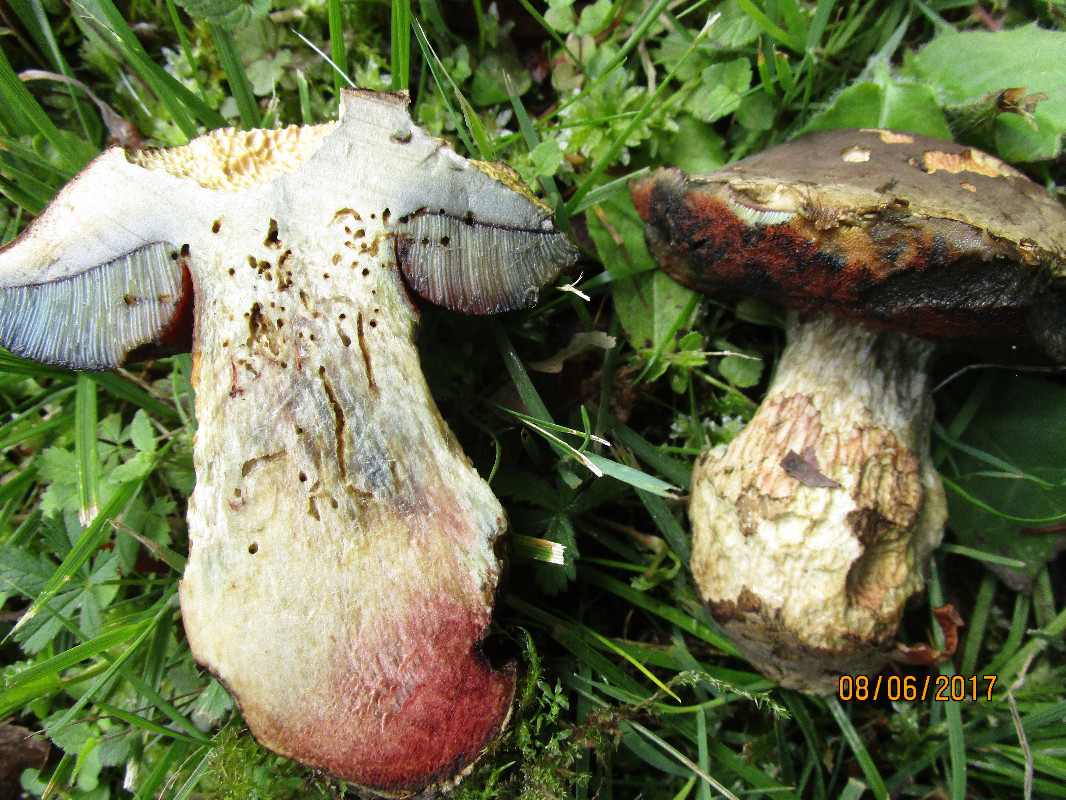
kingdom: Fungi
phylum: Basidiomycota
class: Agaricomycetes
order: Boletales
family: Boletaceae
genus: Suillellus
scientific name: Suillellus luridus
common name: netstokket indigorørhat
